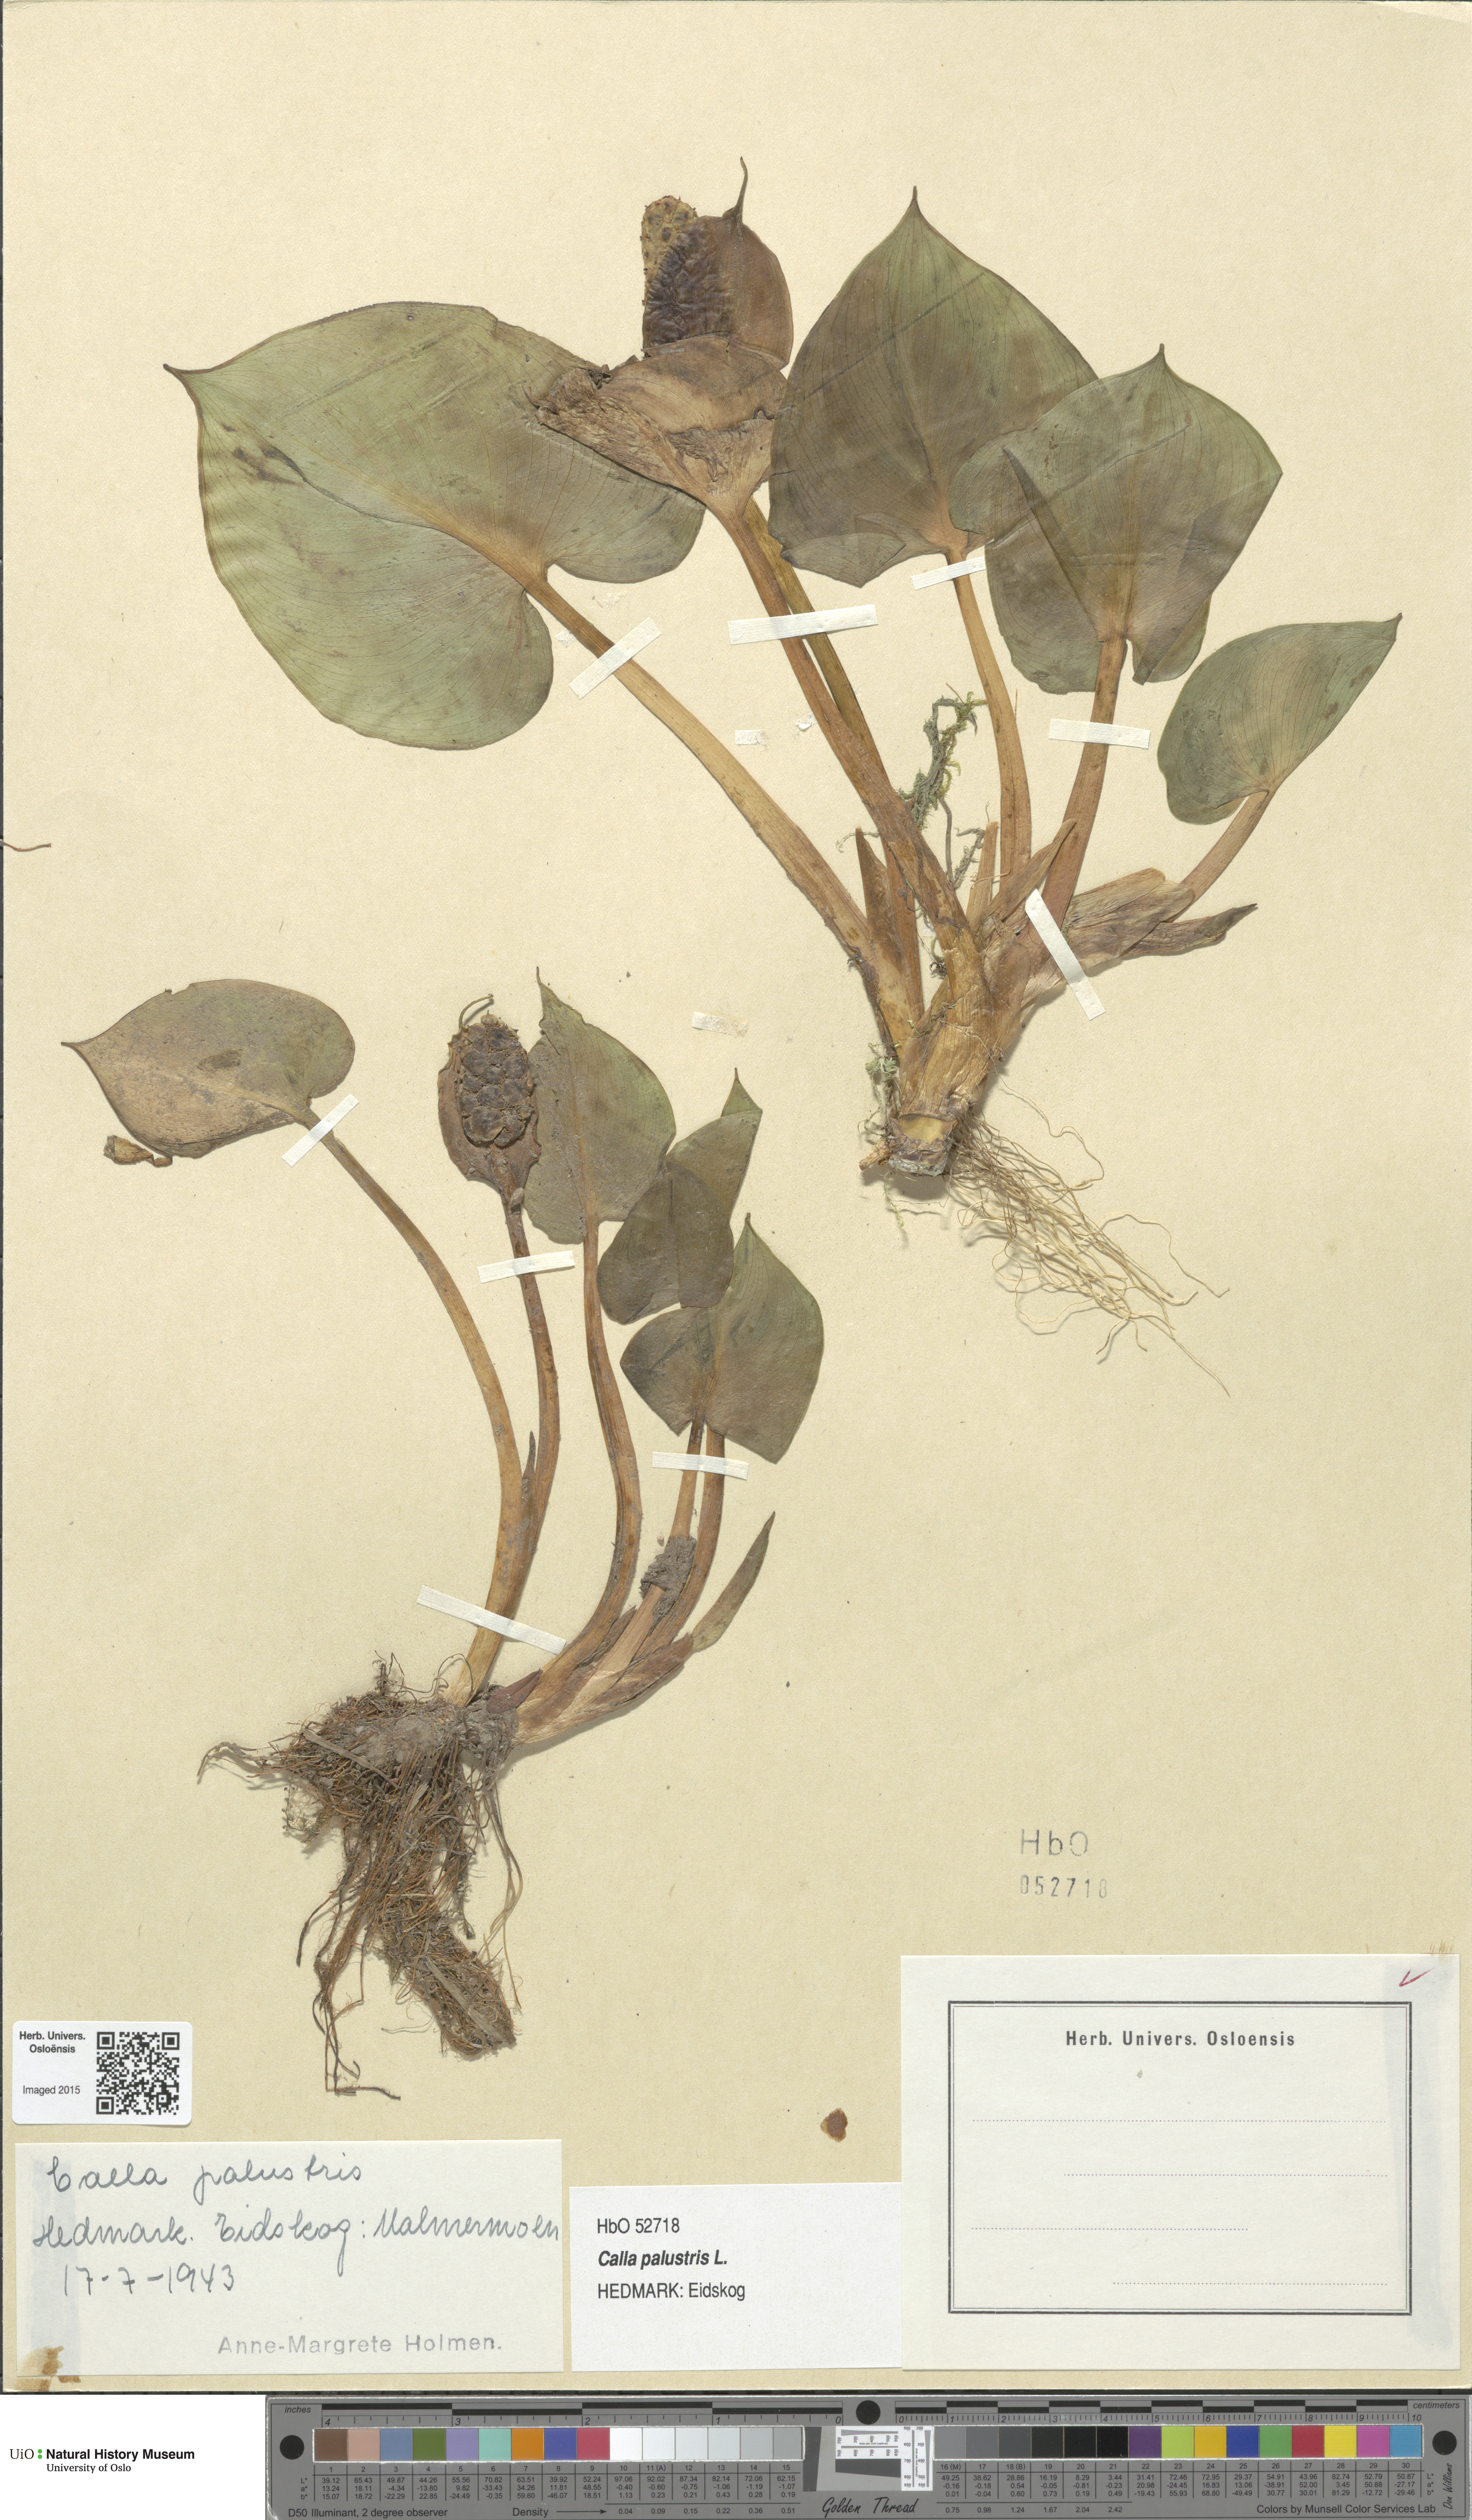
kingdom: Plantae
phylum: Tracheophyta
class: Liliopsida
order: Alismatales
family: Araceae
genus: Calla
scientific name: Calla palustris
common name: Bog arum
